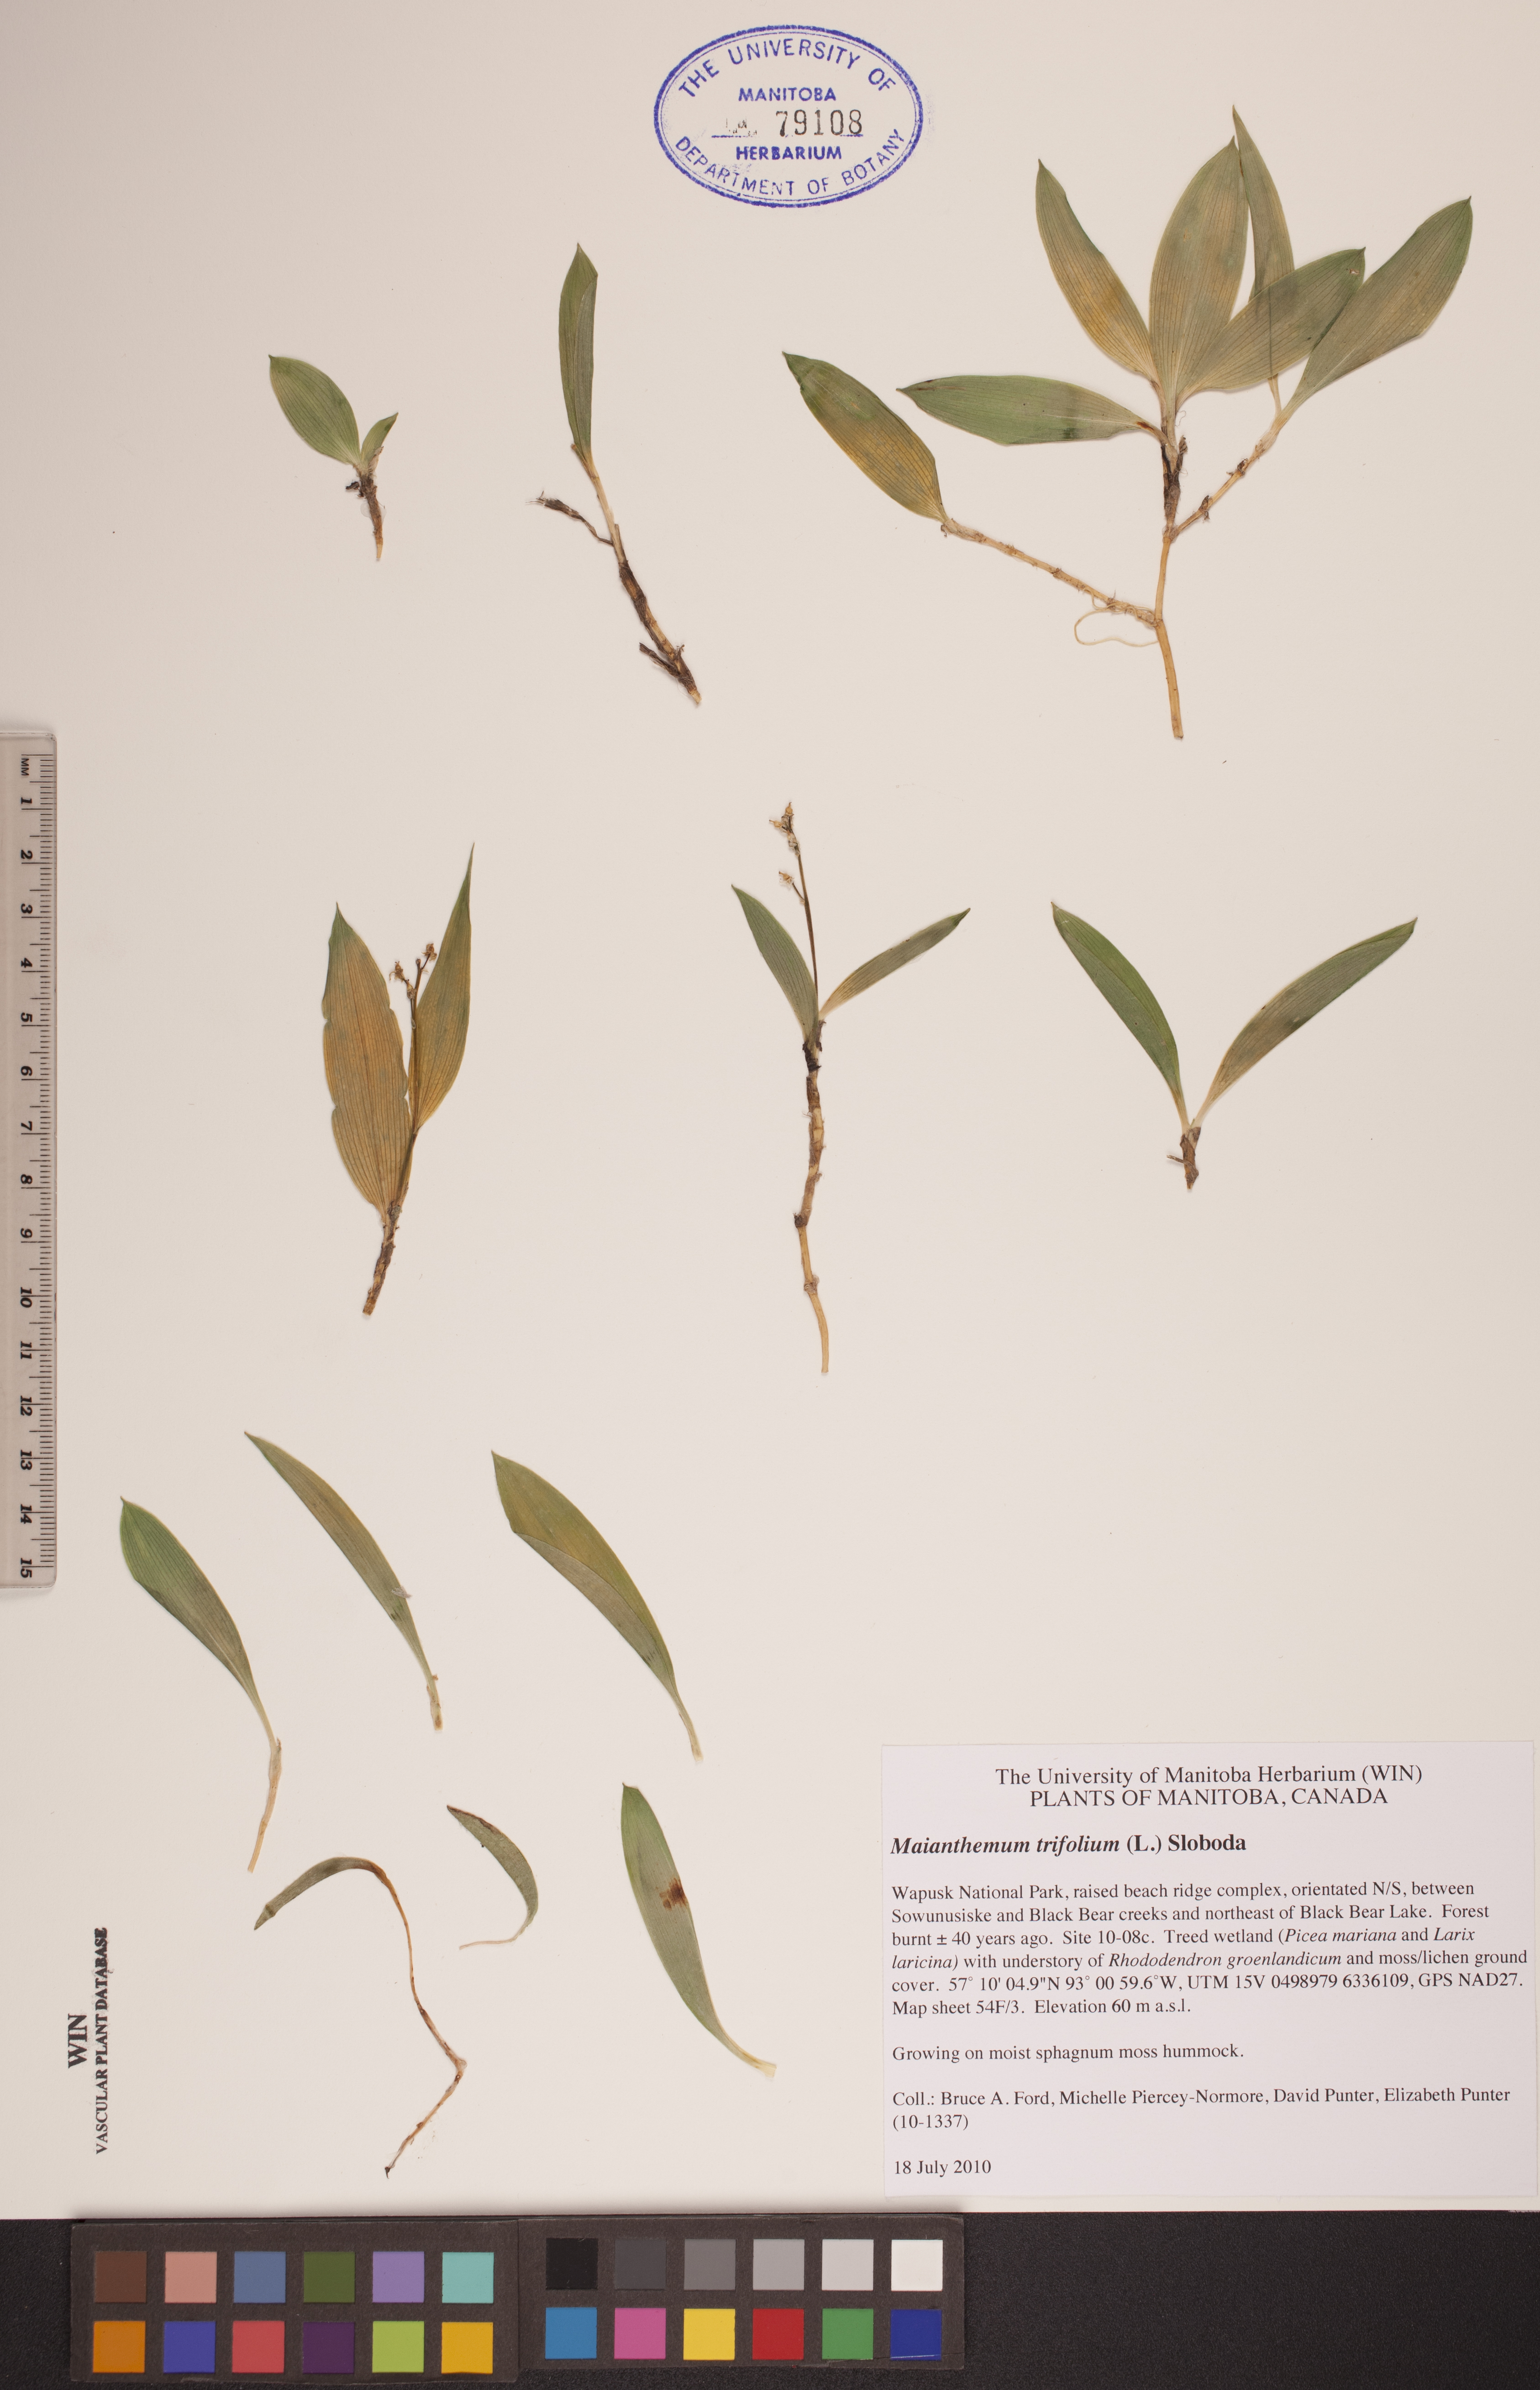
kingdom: Plantae
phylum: Tracheophyta
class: Liliopsida
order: Asparagales
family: Asparagaceae
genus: Maianthemum
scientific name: Maianthemum trifolium
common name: Swamp false solomon's seal
